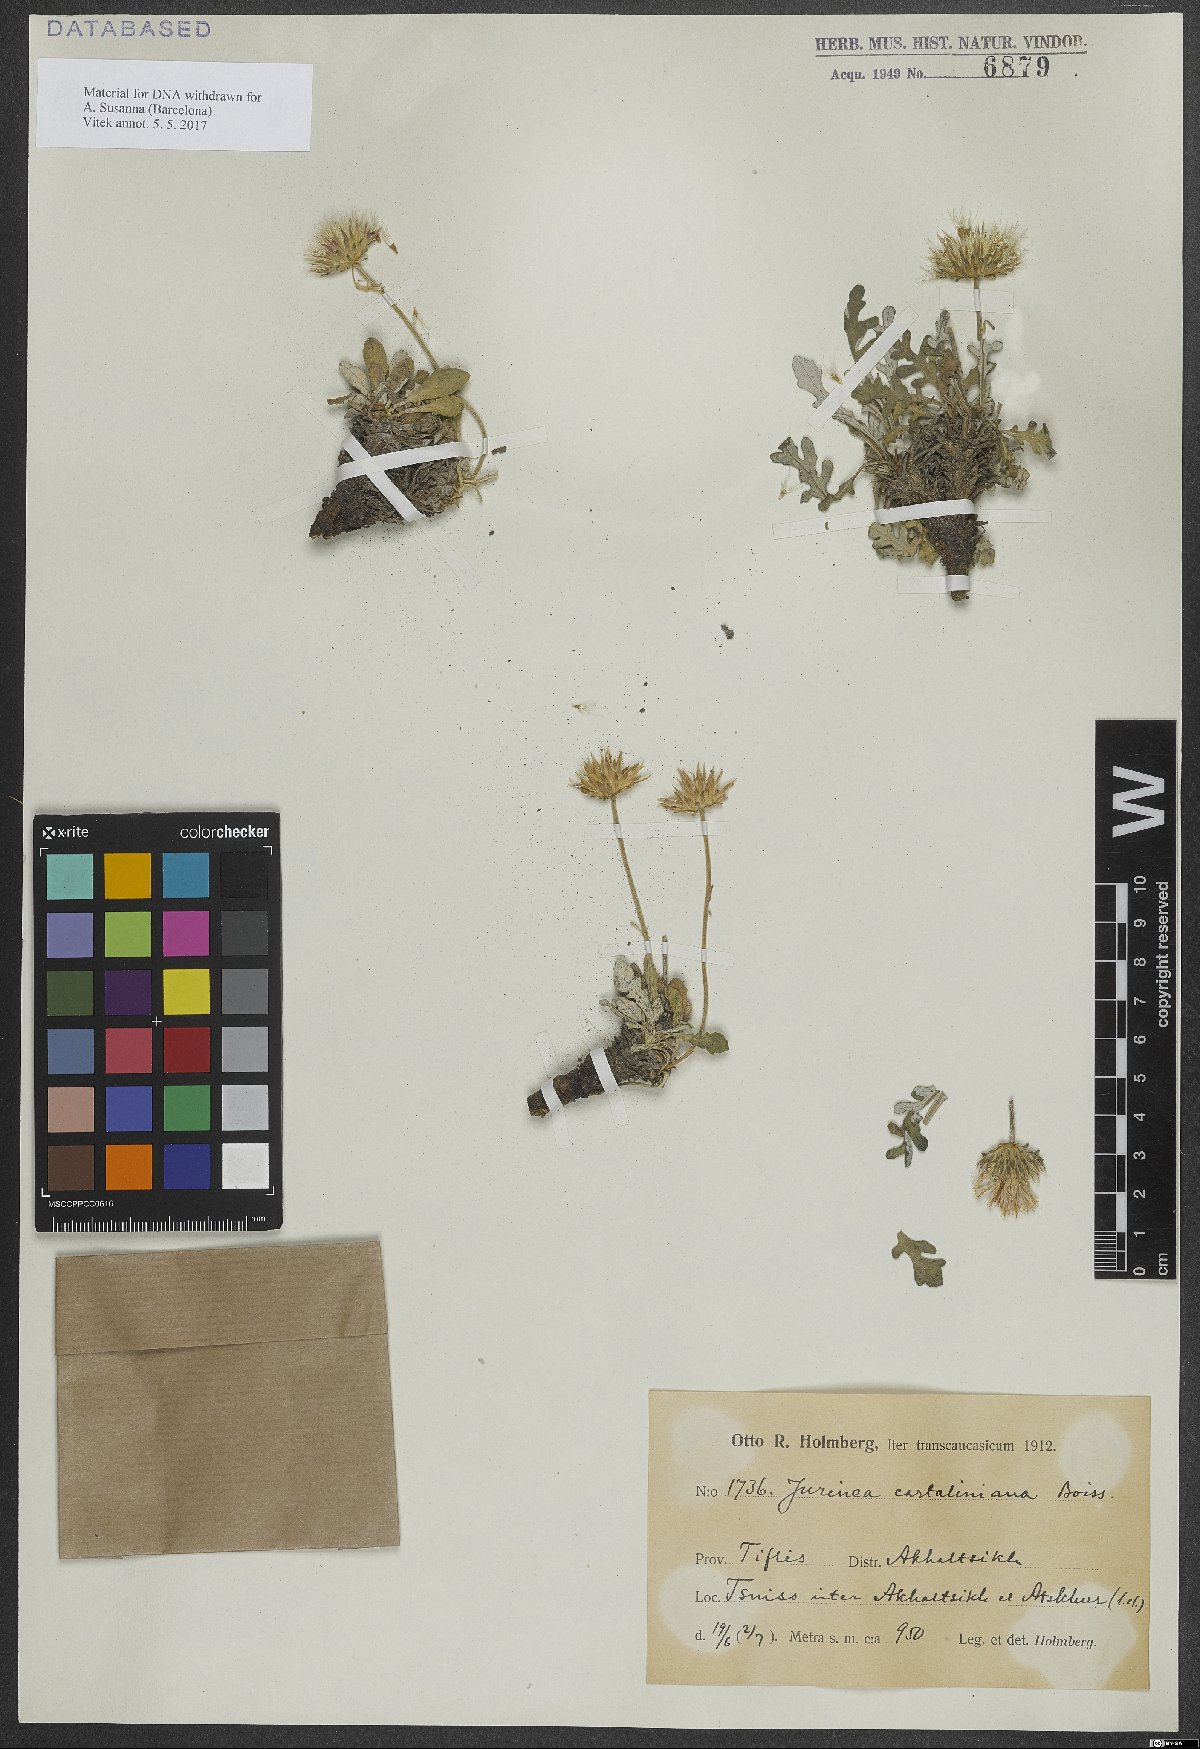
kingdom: Plantae
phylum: Tracheophyta
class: Magnoliopsida
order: Asterales
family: Asteraceae
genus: Jurinea
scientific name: Jurinea cartaliniana
